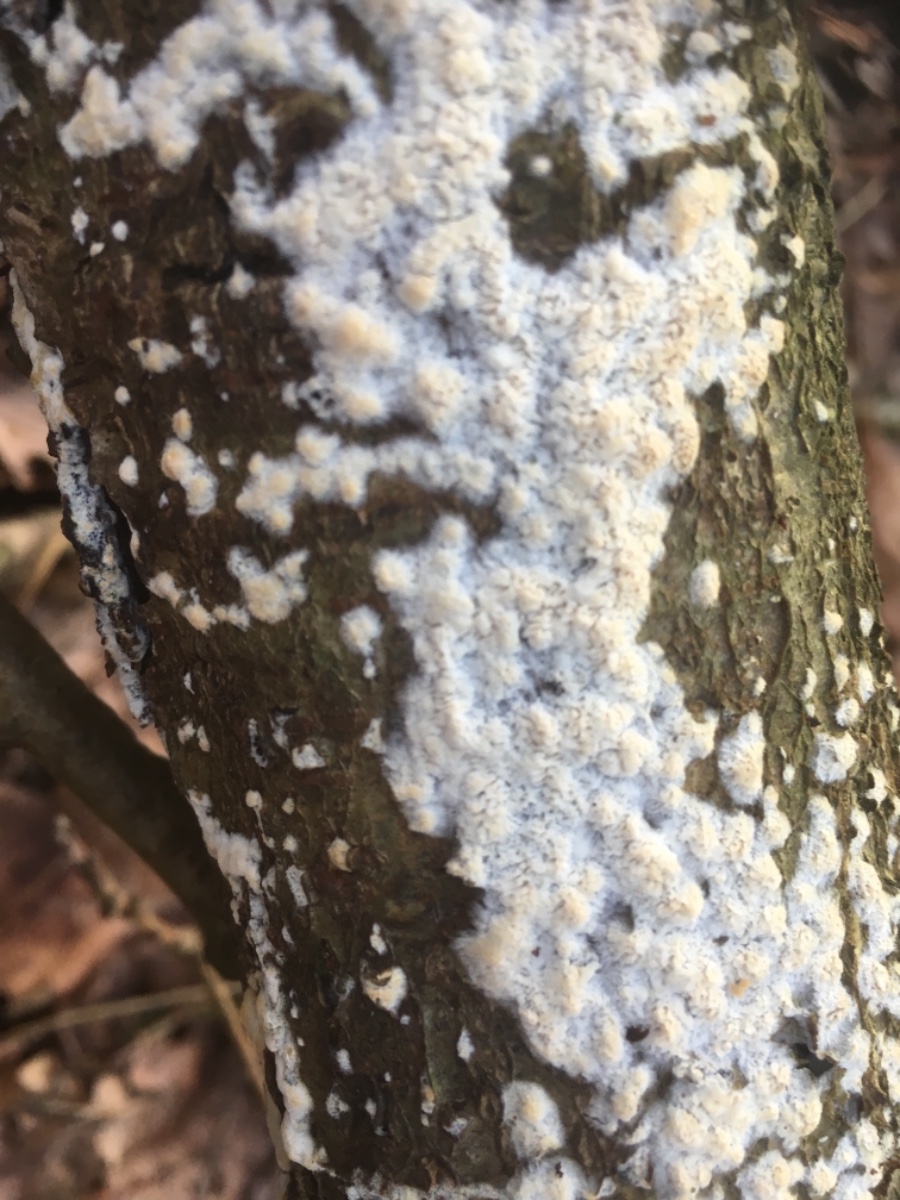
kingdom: Fungi
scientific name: Fungi
